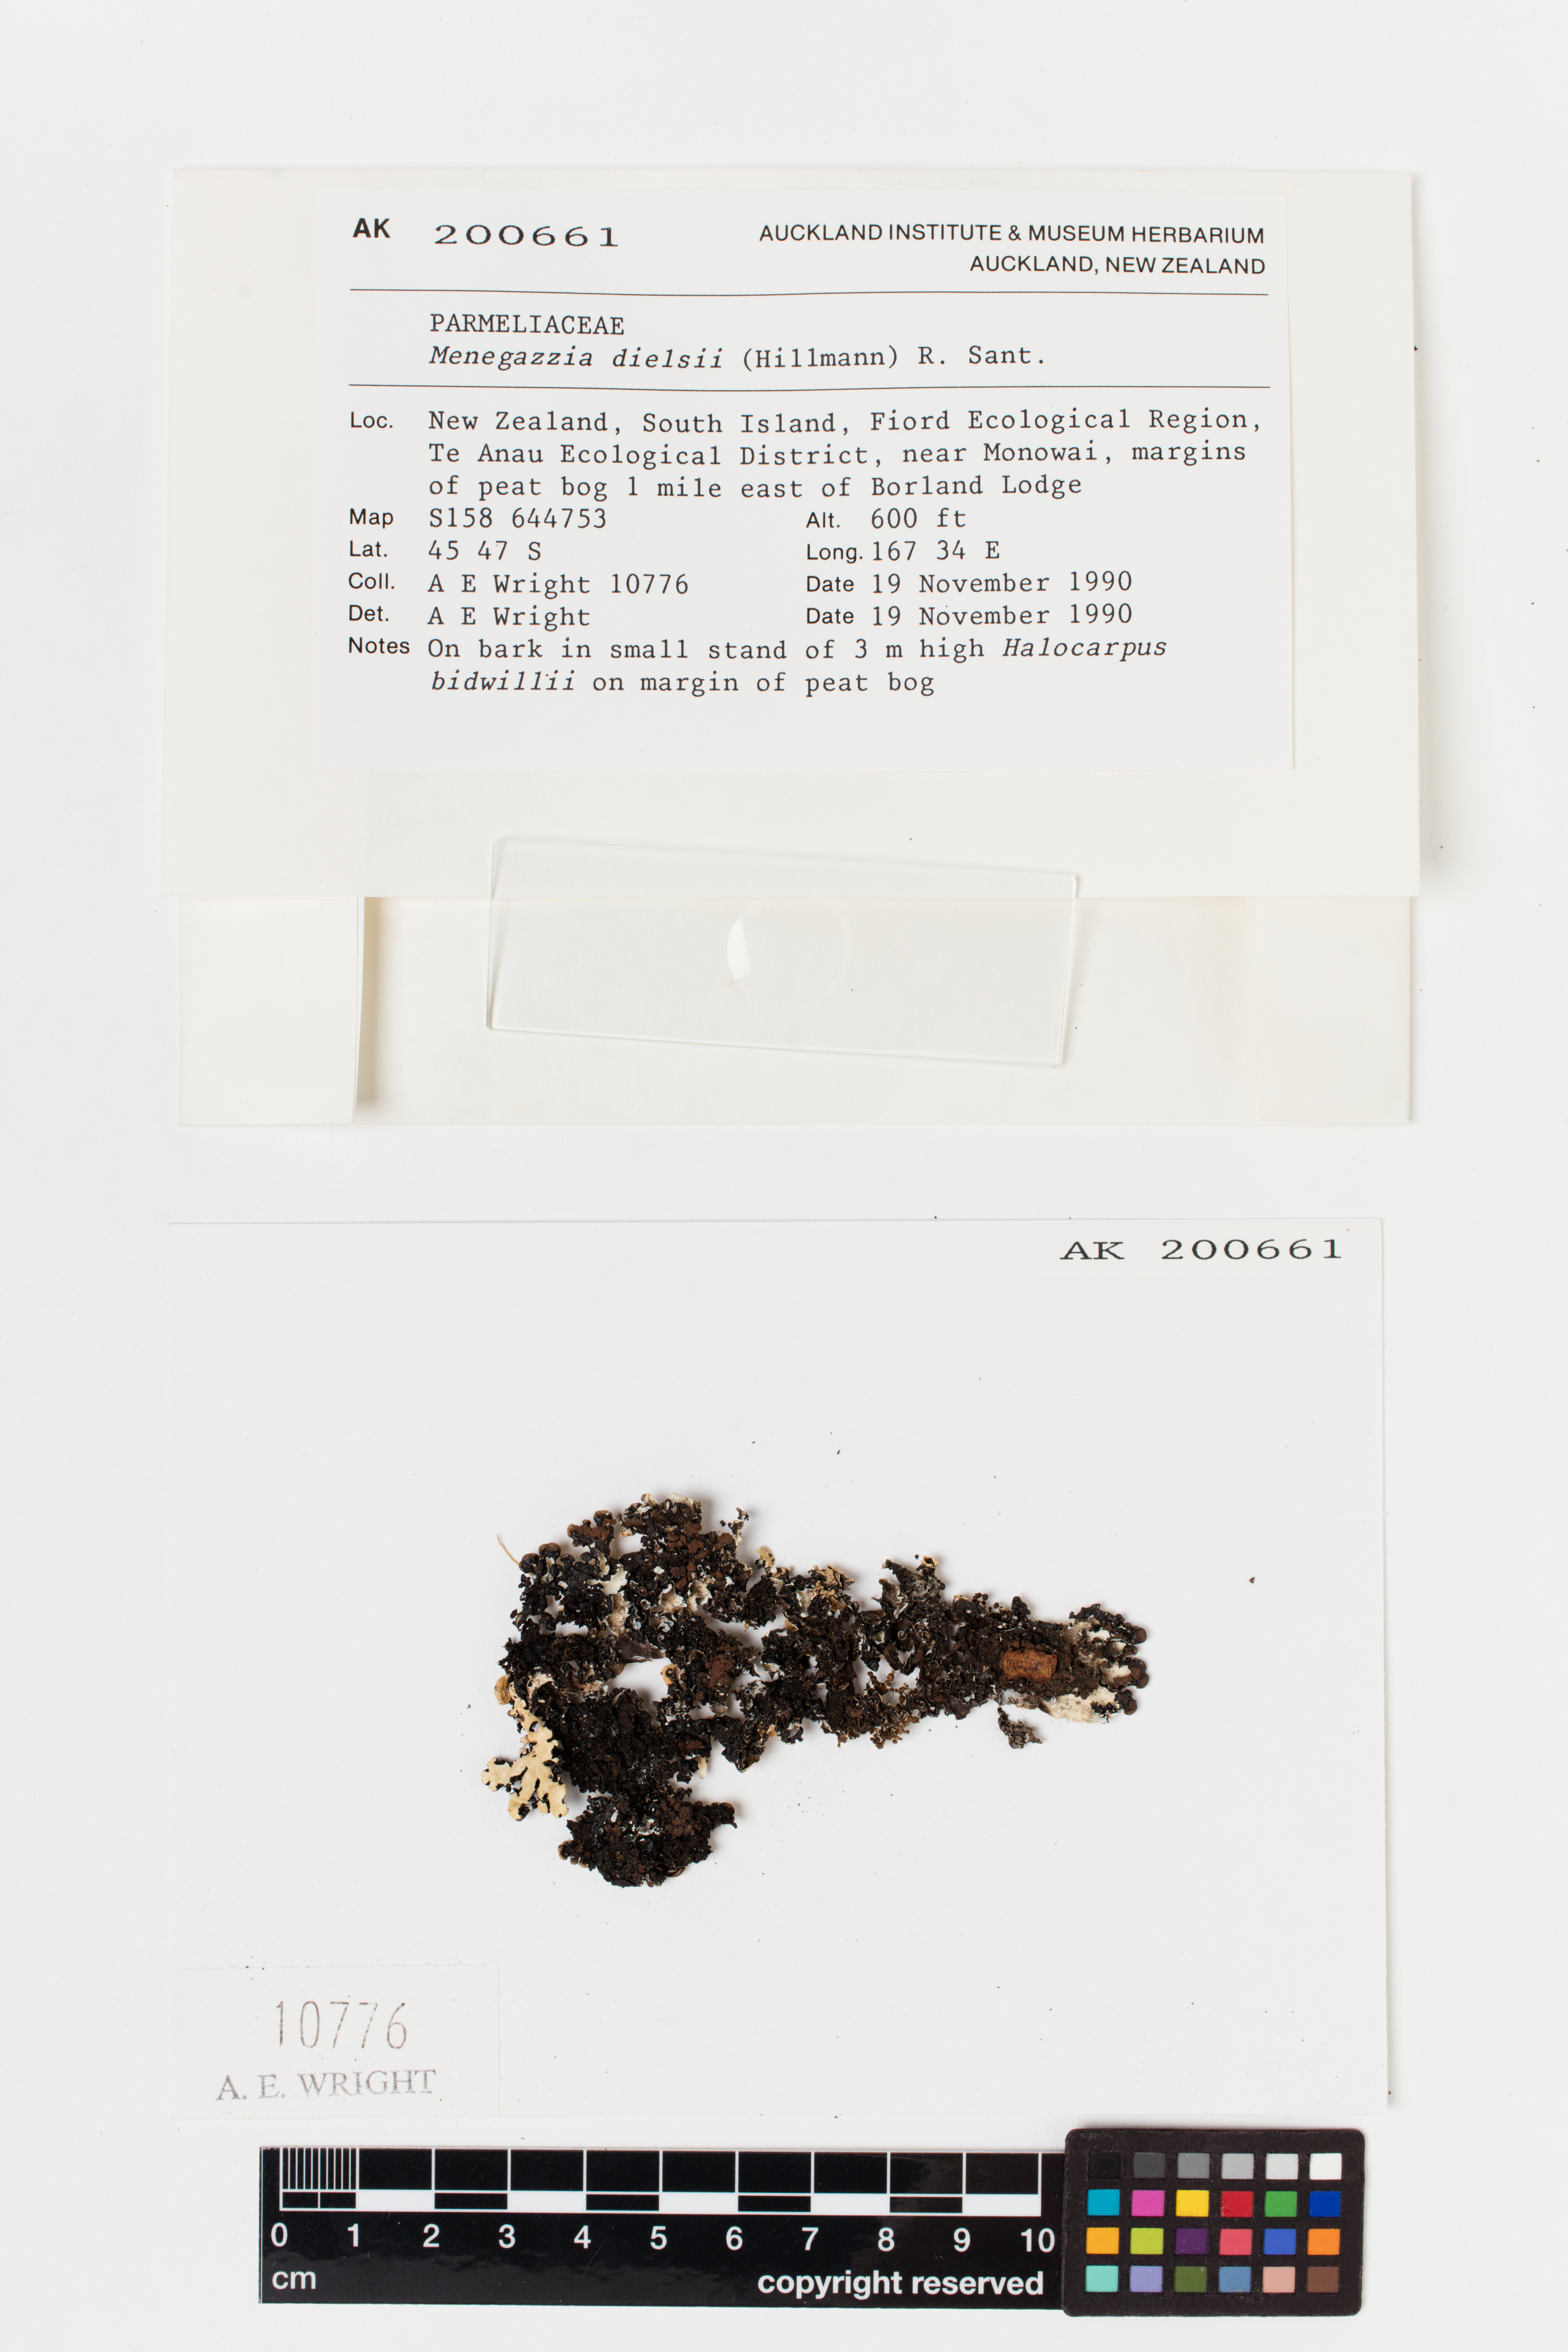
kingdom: Fungi
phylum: Ascomycota
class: Lecanoromycetes
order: Lecanorales
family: Parmeliaceae
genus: Menegazzia
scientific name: Menegazzia dielsii
